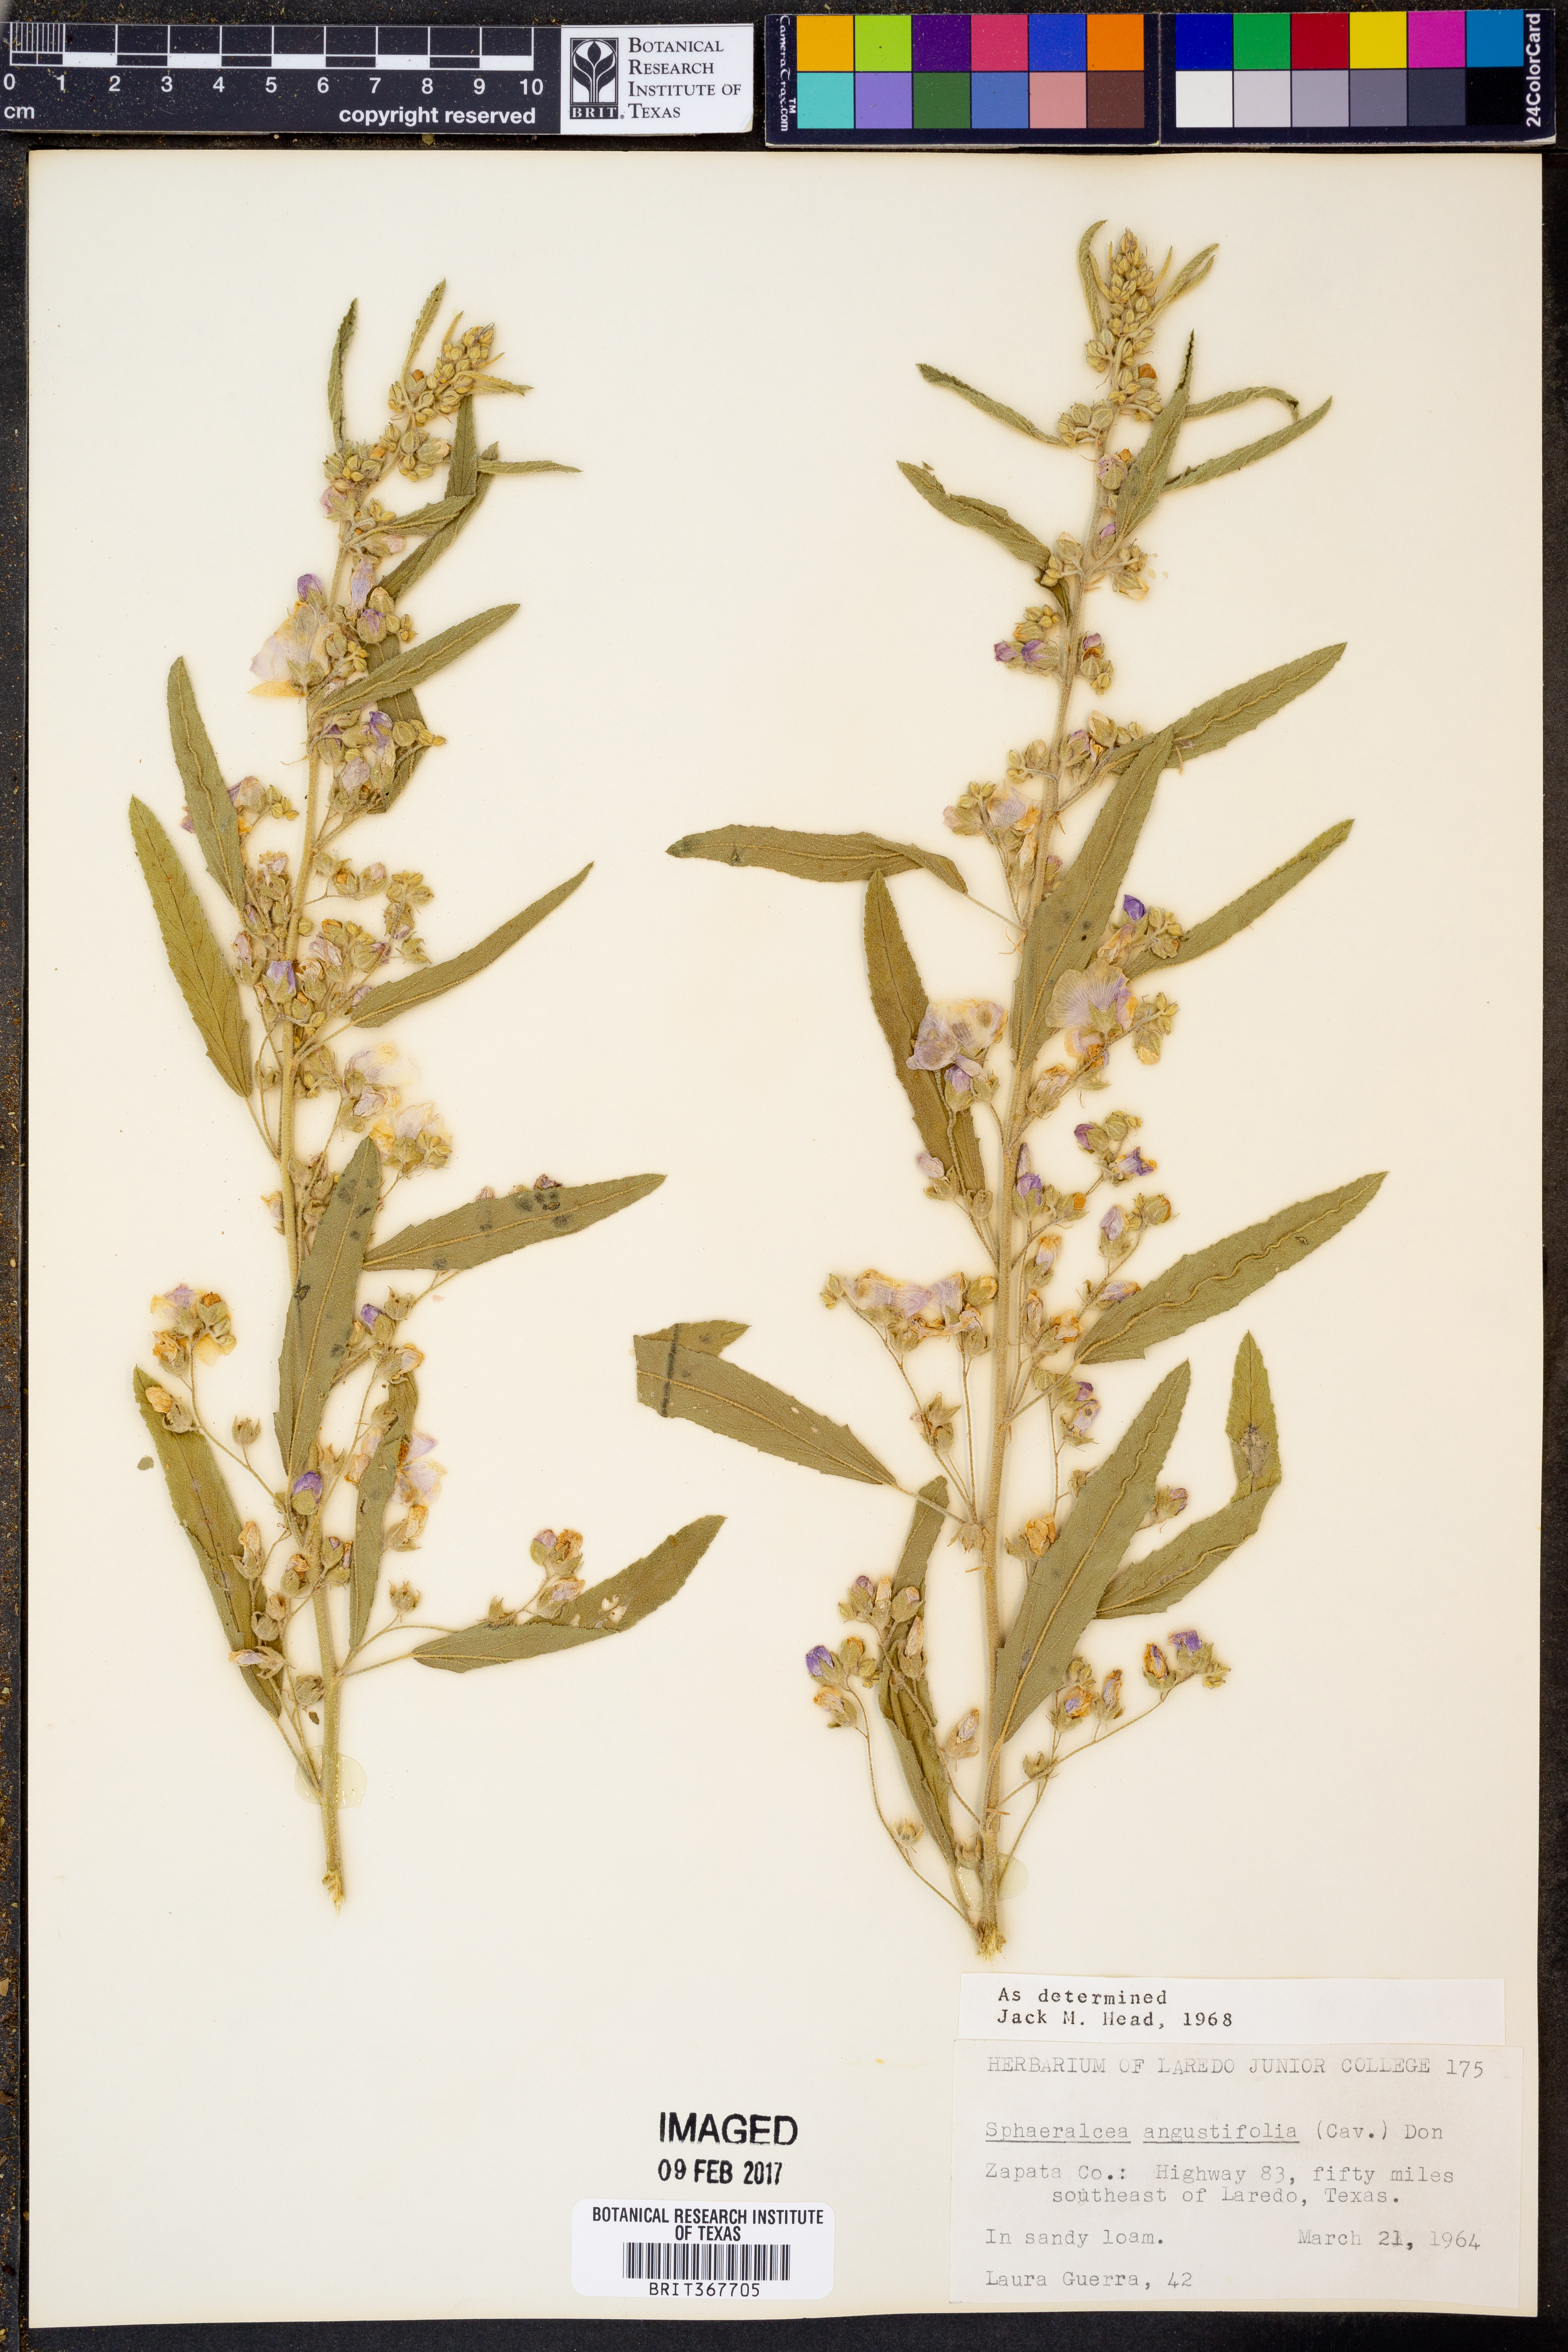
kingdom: Plantae
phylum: Tracheophyta
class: Magnoliopsida
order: Malvales
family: Malvaceae
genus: Sphaeralcea
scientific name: Sphaeralcea angustifolia
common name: Copper globe-mallow
